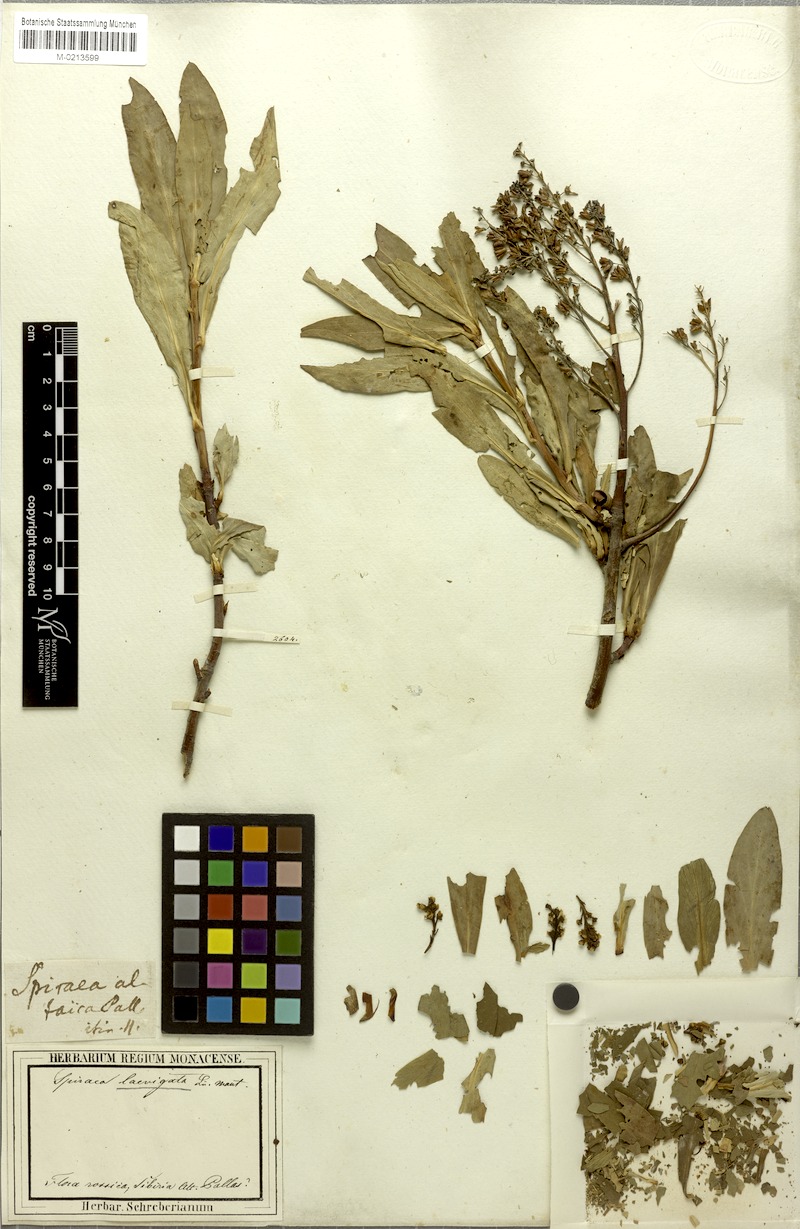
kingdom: Plantae
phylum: Tracheophyta
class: Magnoliopsida
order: Rosales
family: Rosaceae
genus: Sibiraea
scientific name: Sibiraea laevigata
